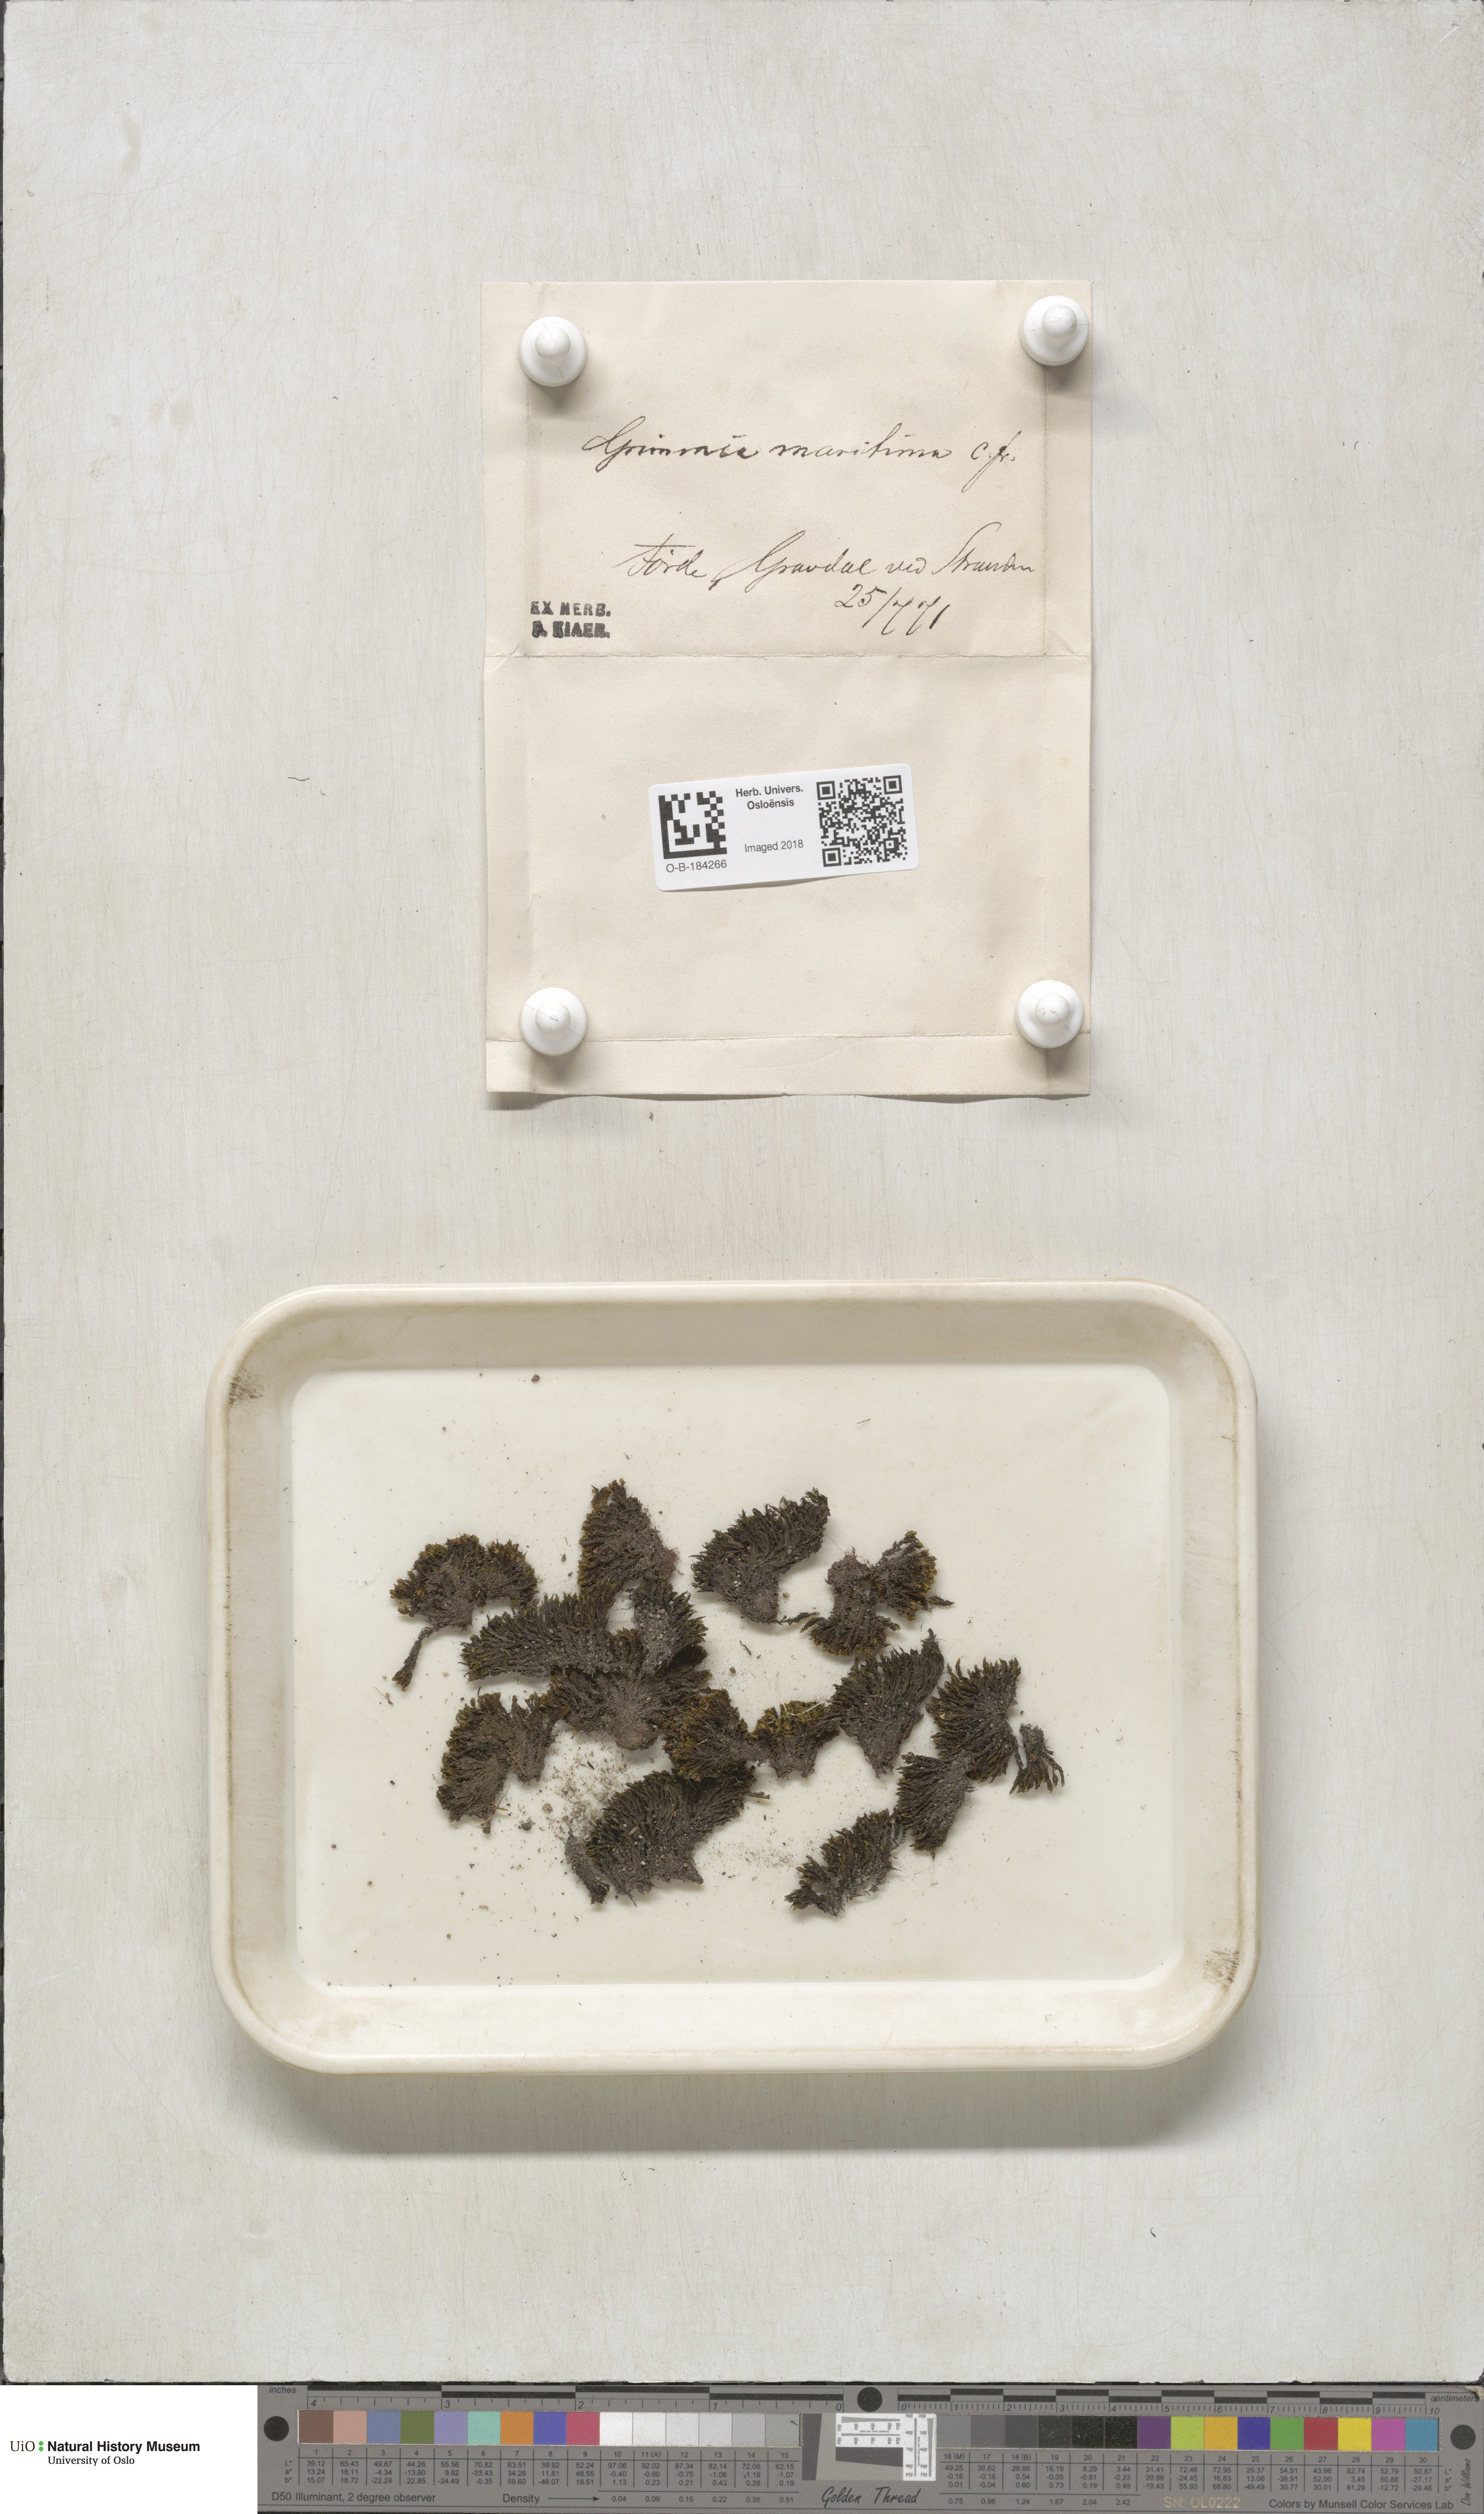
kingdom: Plantae
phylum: Bryophyta
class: Bryopsida
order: Grimmiales
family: Grimmiaceae
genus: Schistidium
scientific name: Schistidium maritimum
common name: Seaside bloom moss
